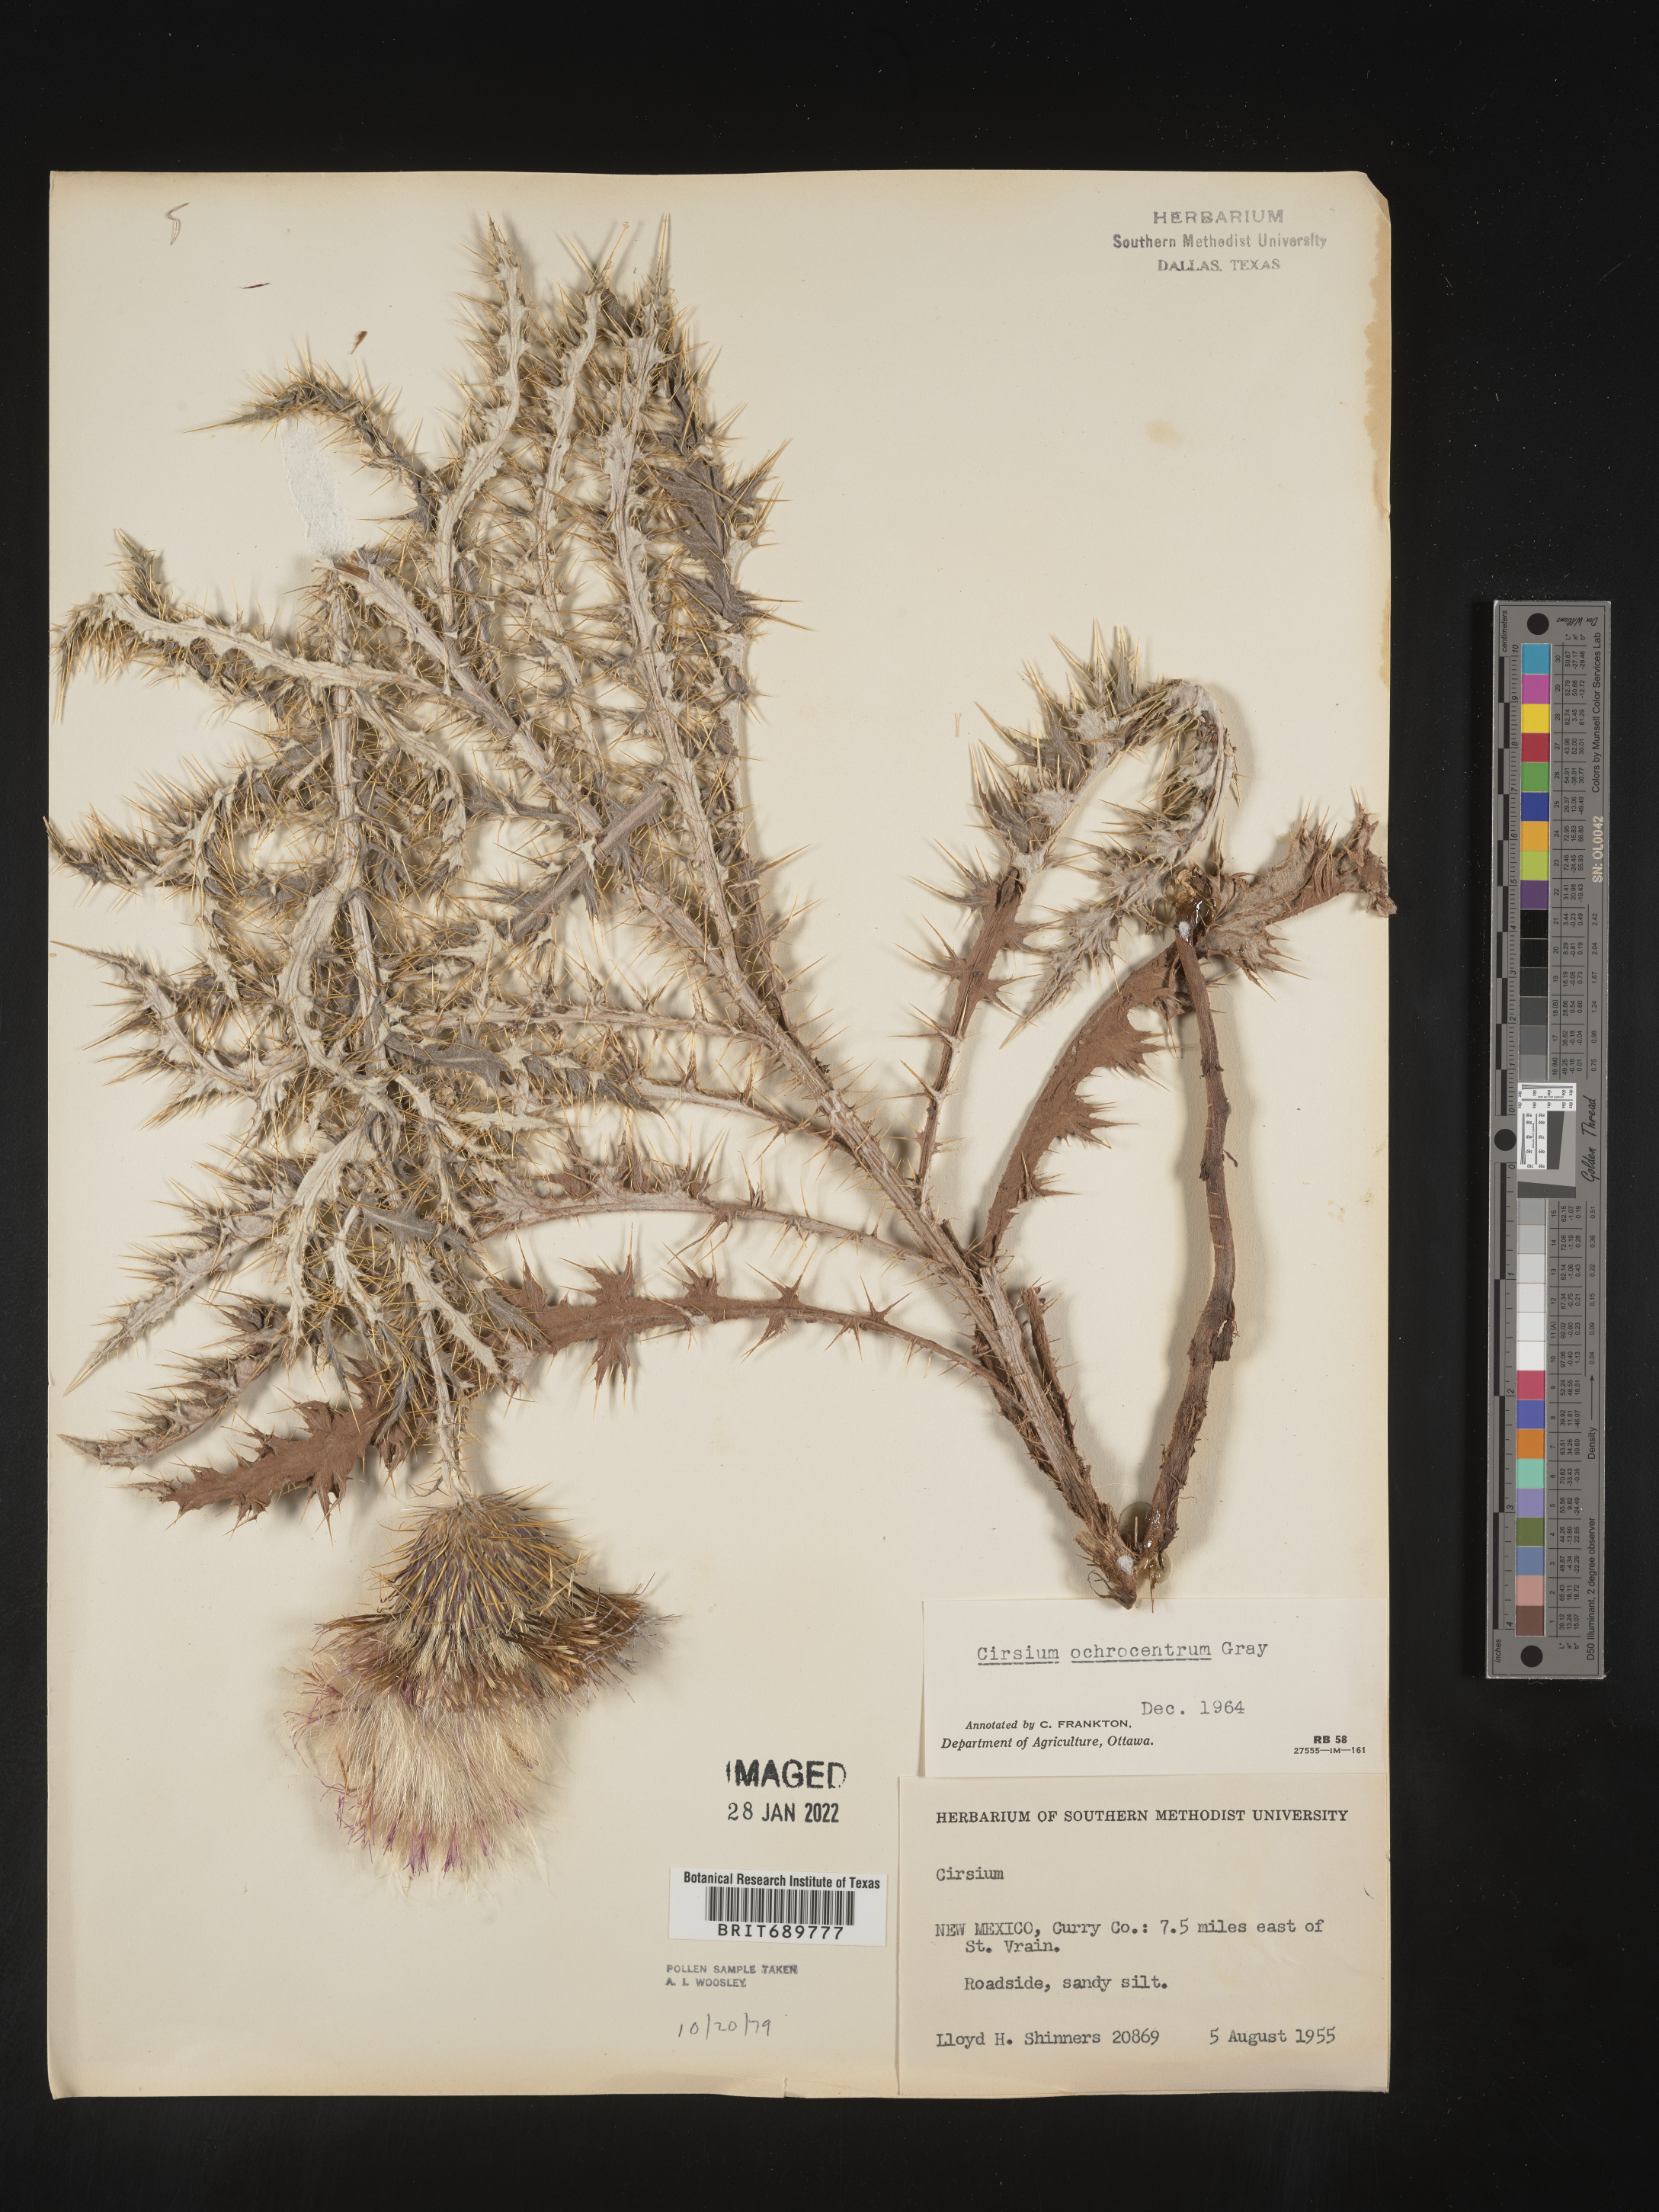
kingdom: Plantae
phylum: Tracheophyta
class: Magnoliopsida
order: Asterales
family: Asteraceae
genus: Cirsium
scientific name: Cirsium ochrocentrum
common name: Yellow-spine thistle
